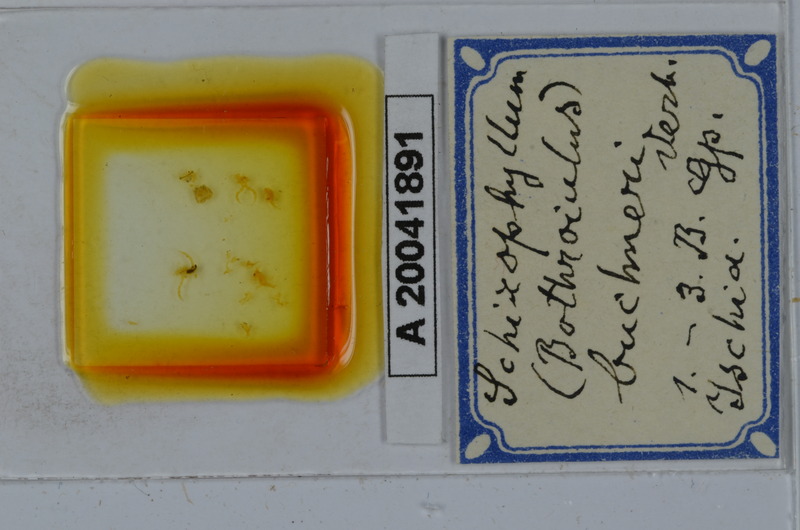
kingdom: Animalia
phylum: Arthropoda
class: Diplopoda
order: Julida
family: Julidae
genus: Schizophyllum
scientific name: Schizophyllum buchneri
